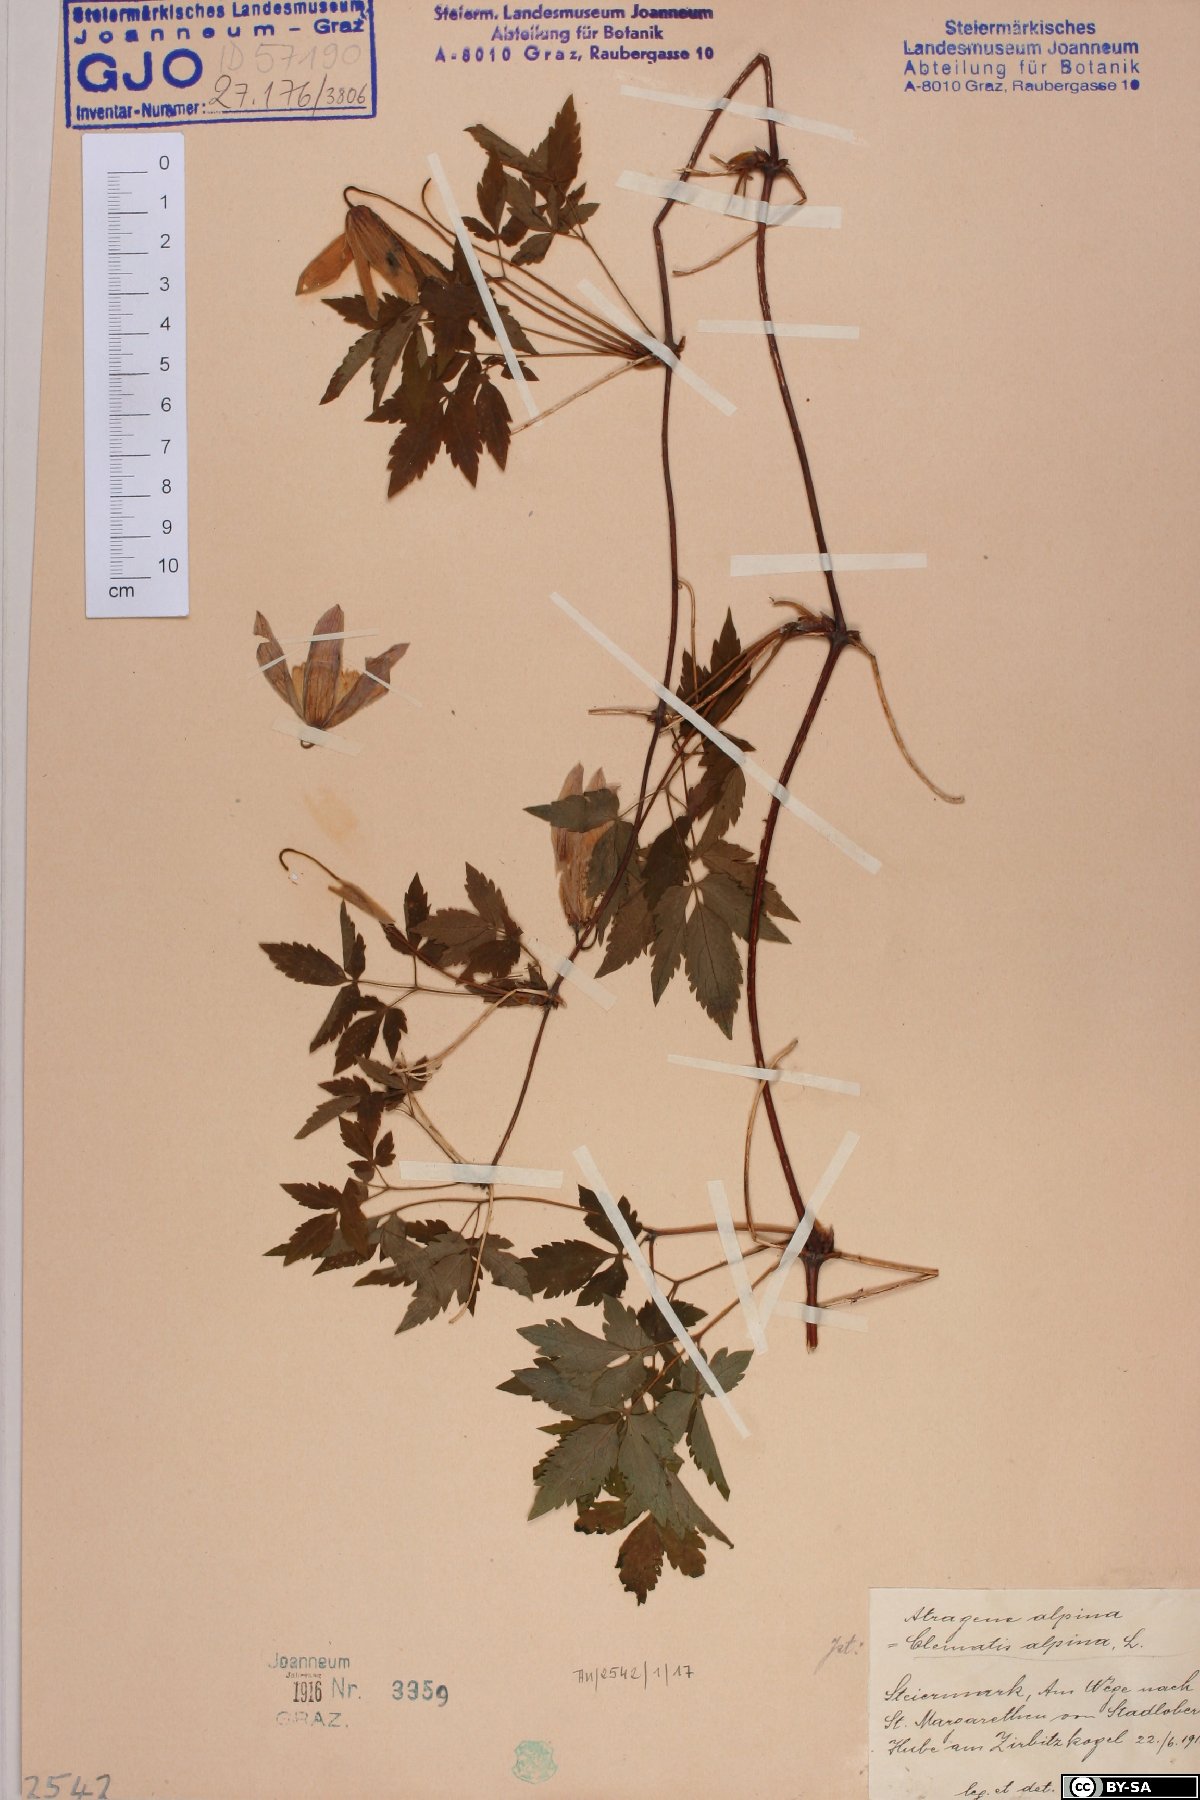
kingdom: Plantae
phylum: Tracheophyta
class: Magnoliopsida
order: Ranunculales
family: Ranunculaceae
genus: Clematis
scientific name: Clematis alpina
